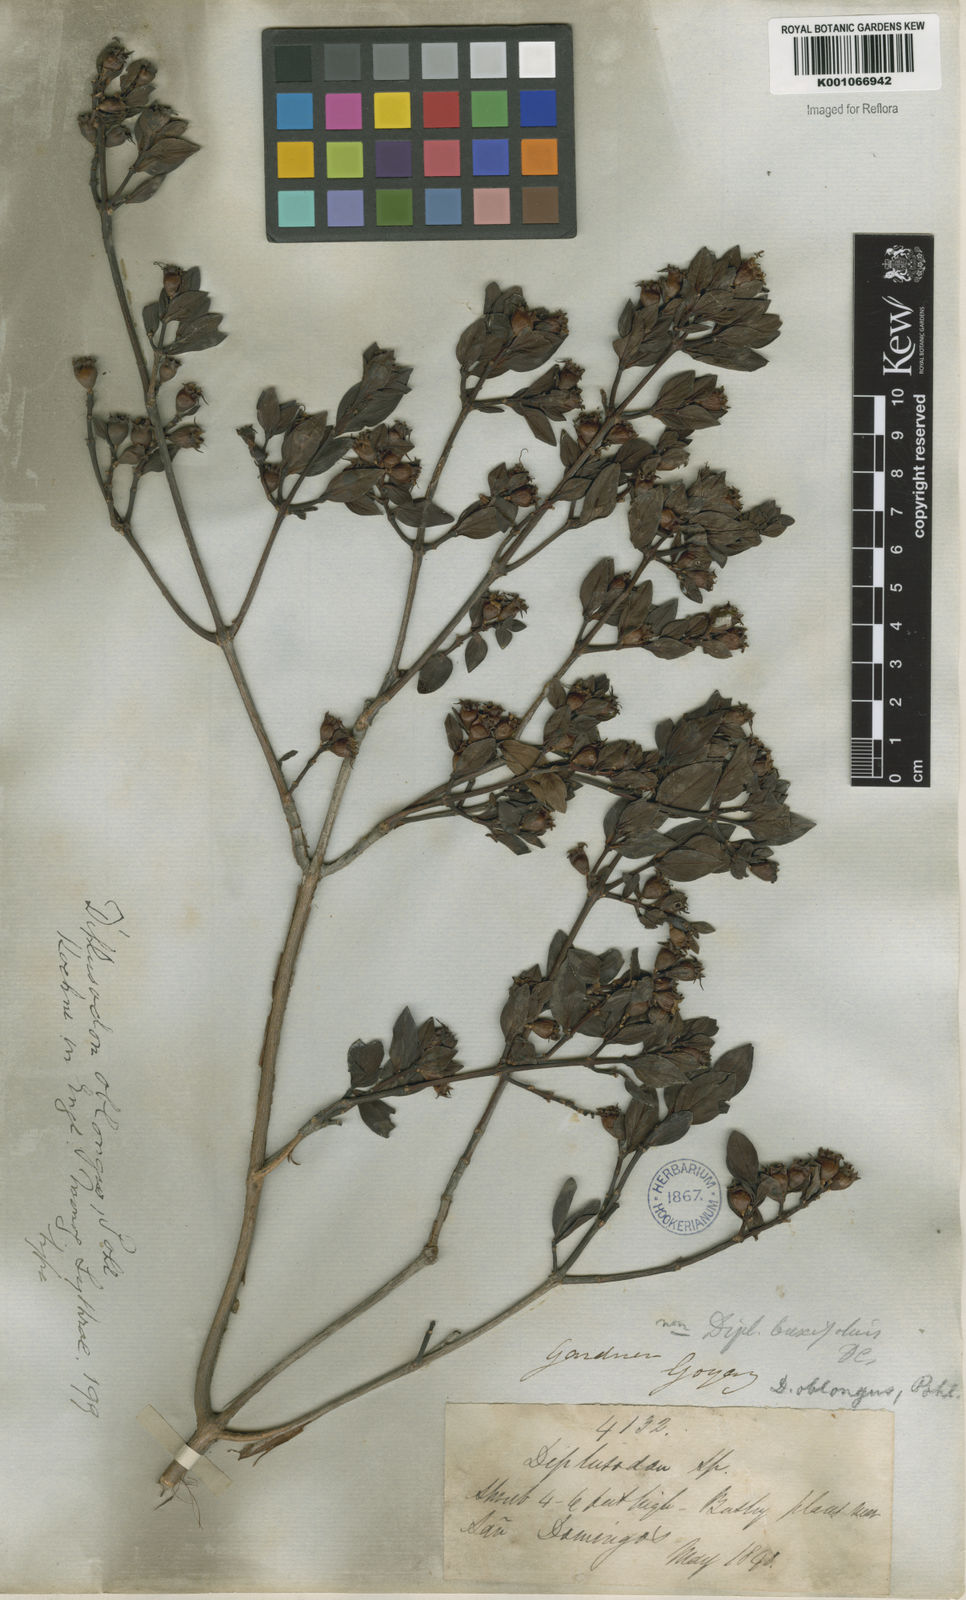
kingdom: Plantae
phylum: Tracheophyta
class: Magnoliopsida
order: Myrtales
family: Lythraceae
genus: Diplusodon
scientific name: Diplusodon oblongus
